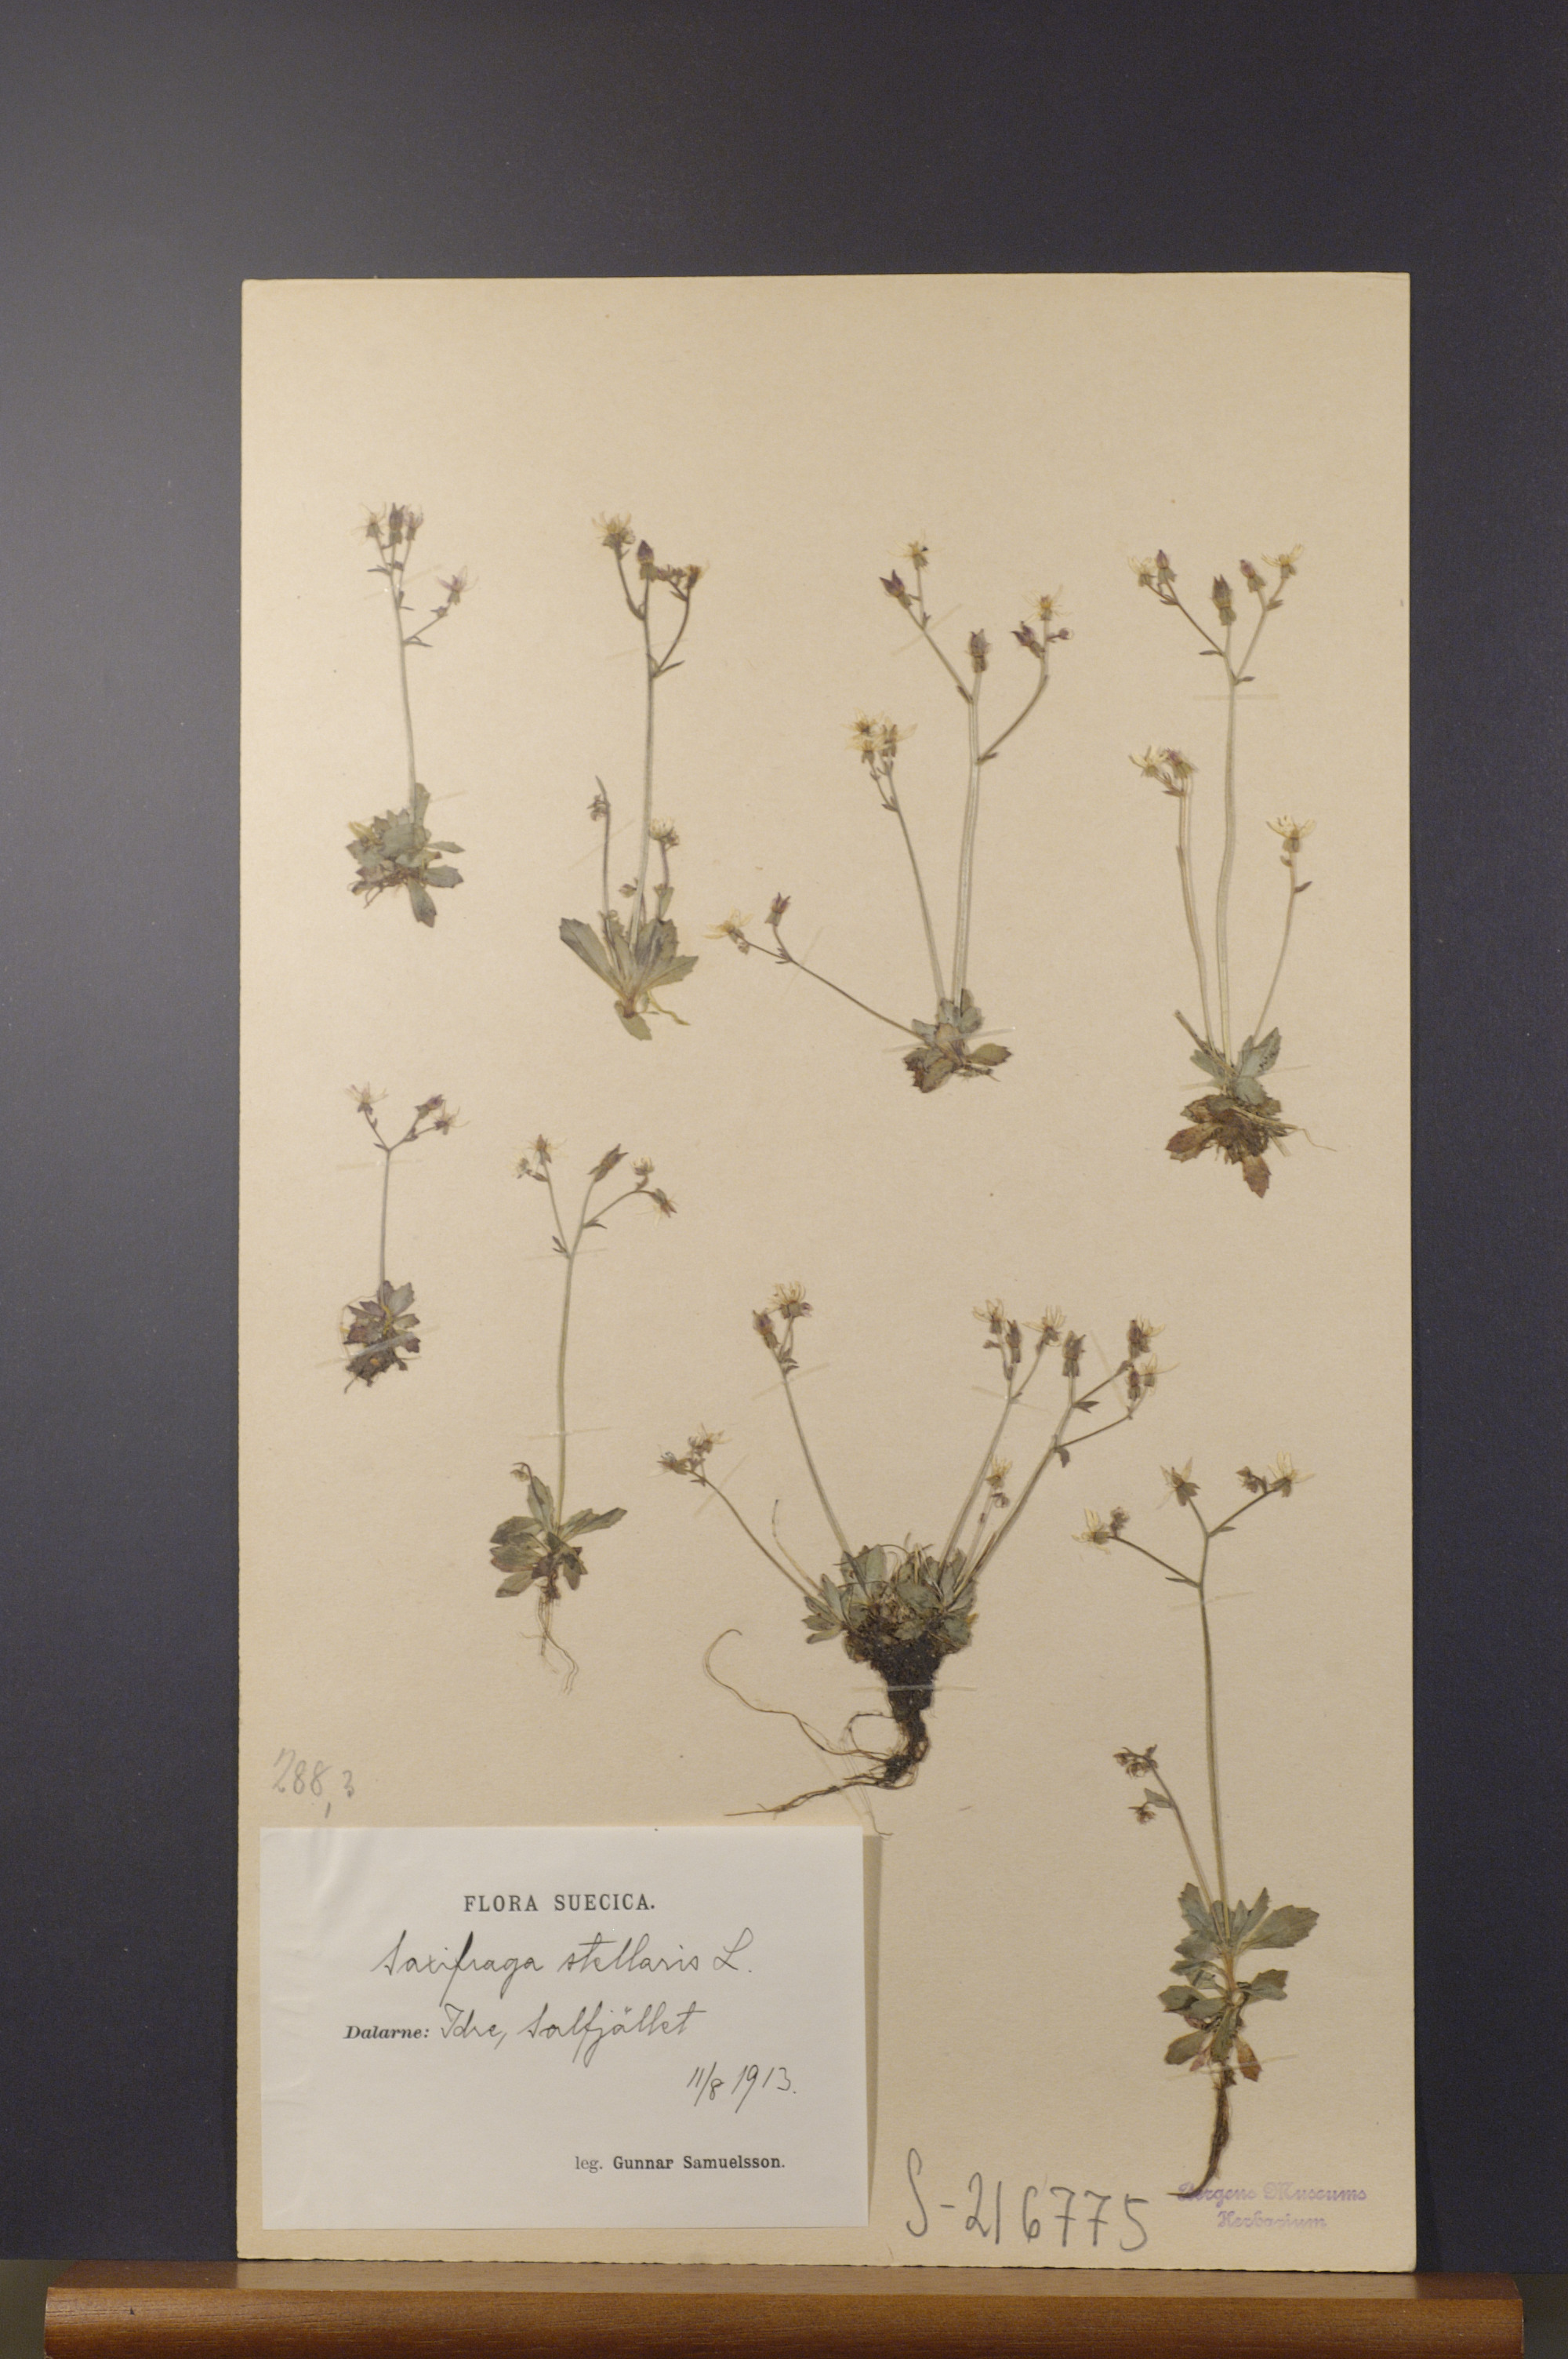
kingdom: Plantae
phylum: Tracheophyta
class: Magnoliopsida
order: Saxifragales
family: Saxifragaceae
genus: Micranthes
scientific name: Micranthes stellaris
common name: Starry saxifrage
